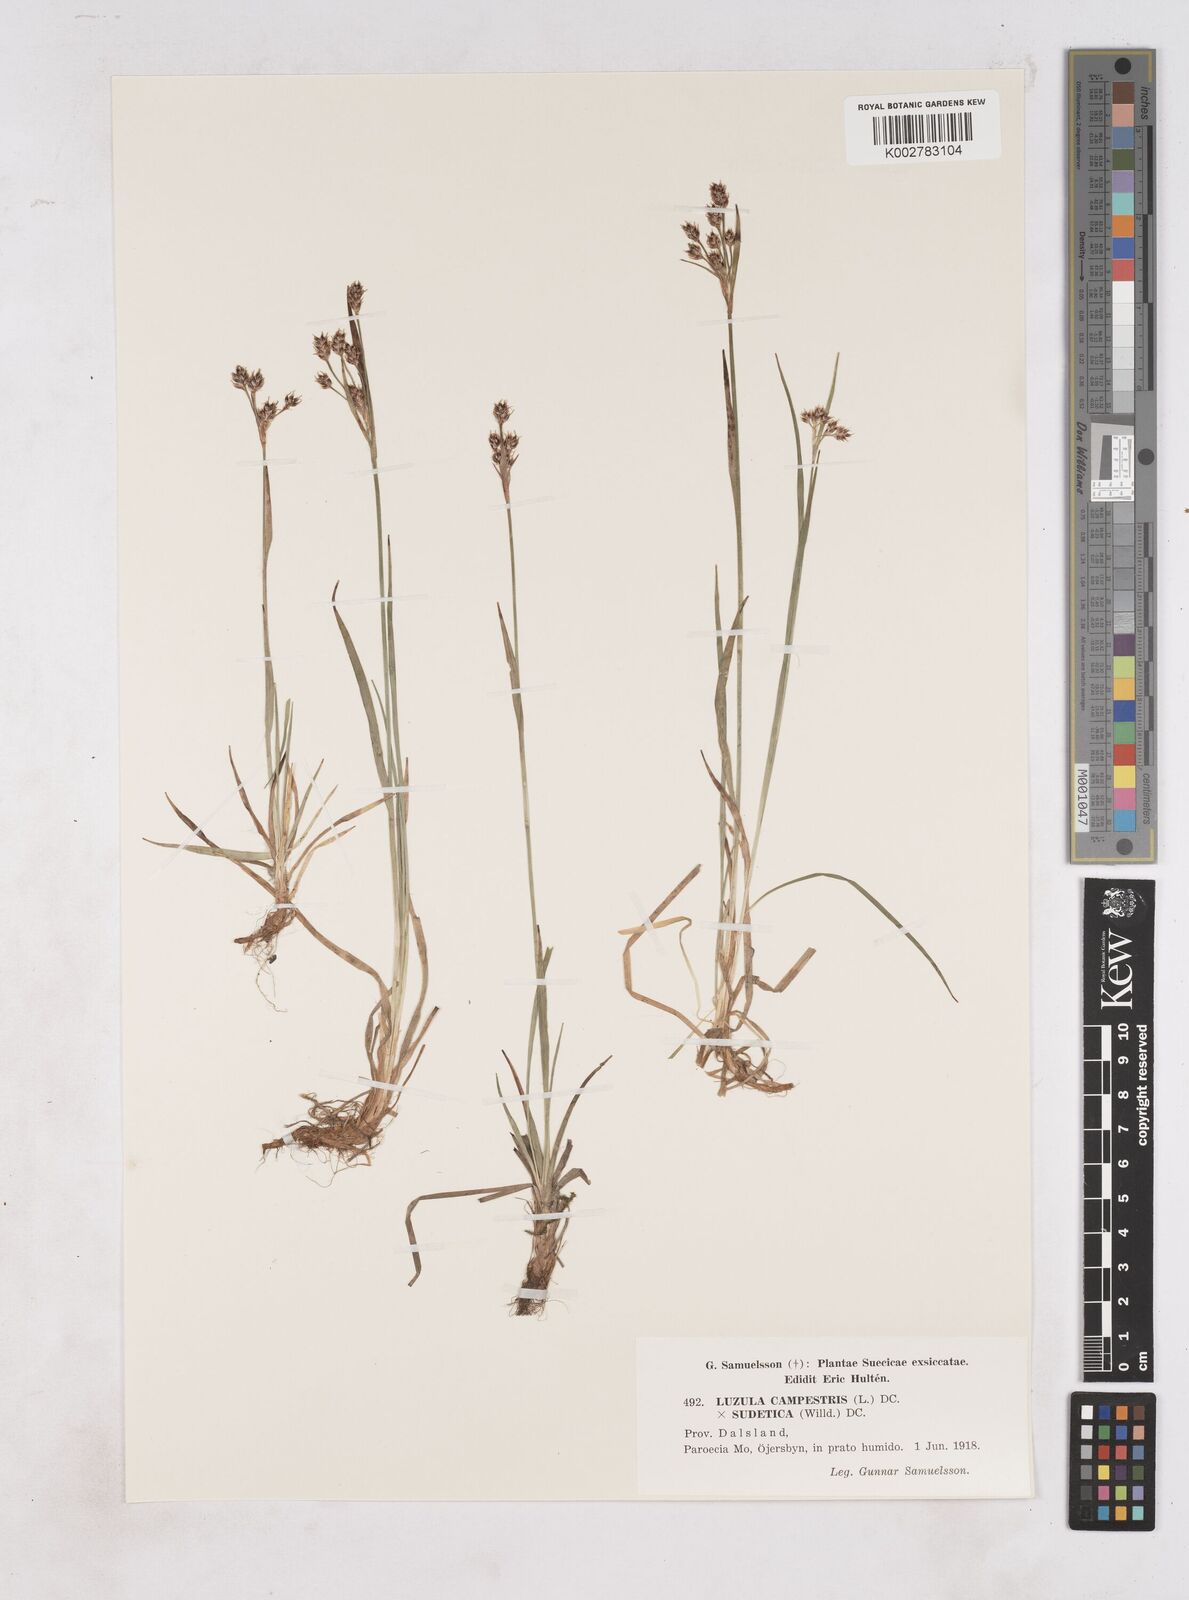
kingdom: Plantae
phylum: Tracheophyta
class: Liliopsida
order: Poales
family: Juncaceae
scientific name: Juncaceae
